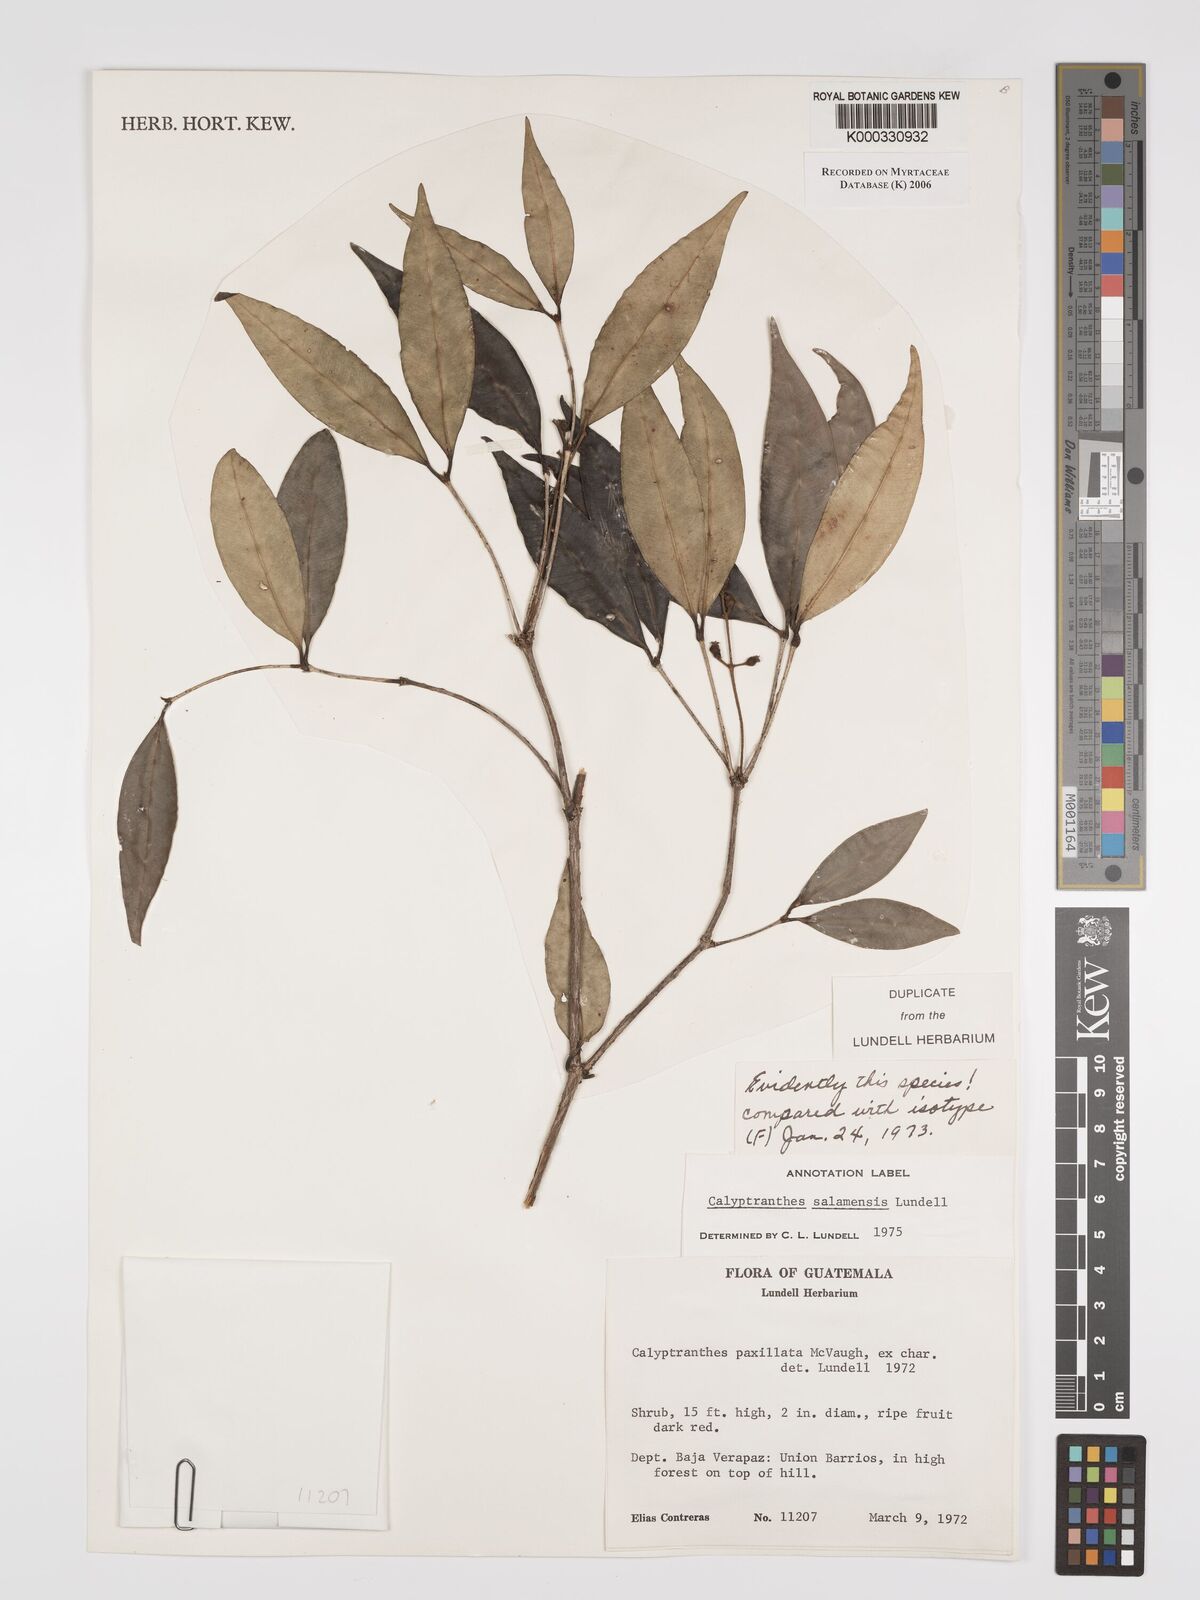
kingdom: Plantae
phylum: Tracheophyta
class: Magnoliopsida
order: Myrtales
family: Myrtaceae
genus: Myrcia
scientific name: Myrcia salamensis
